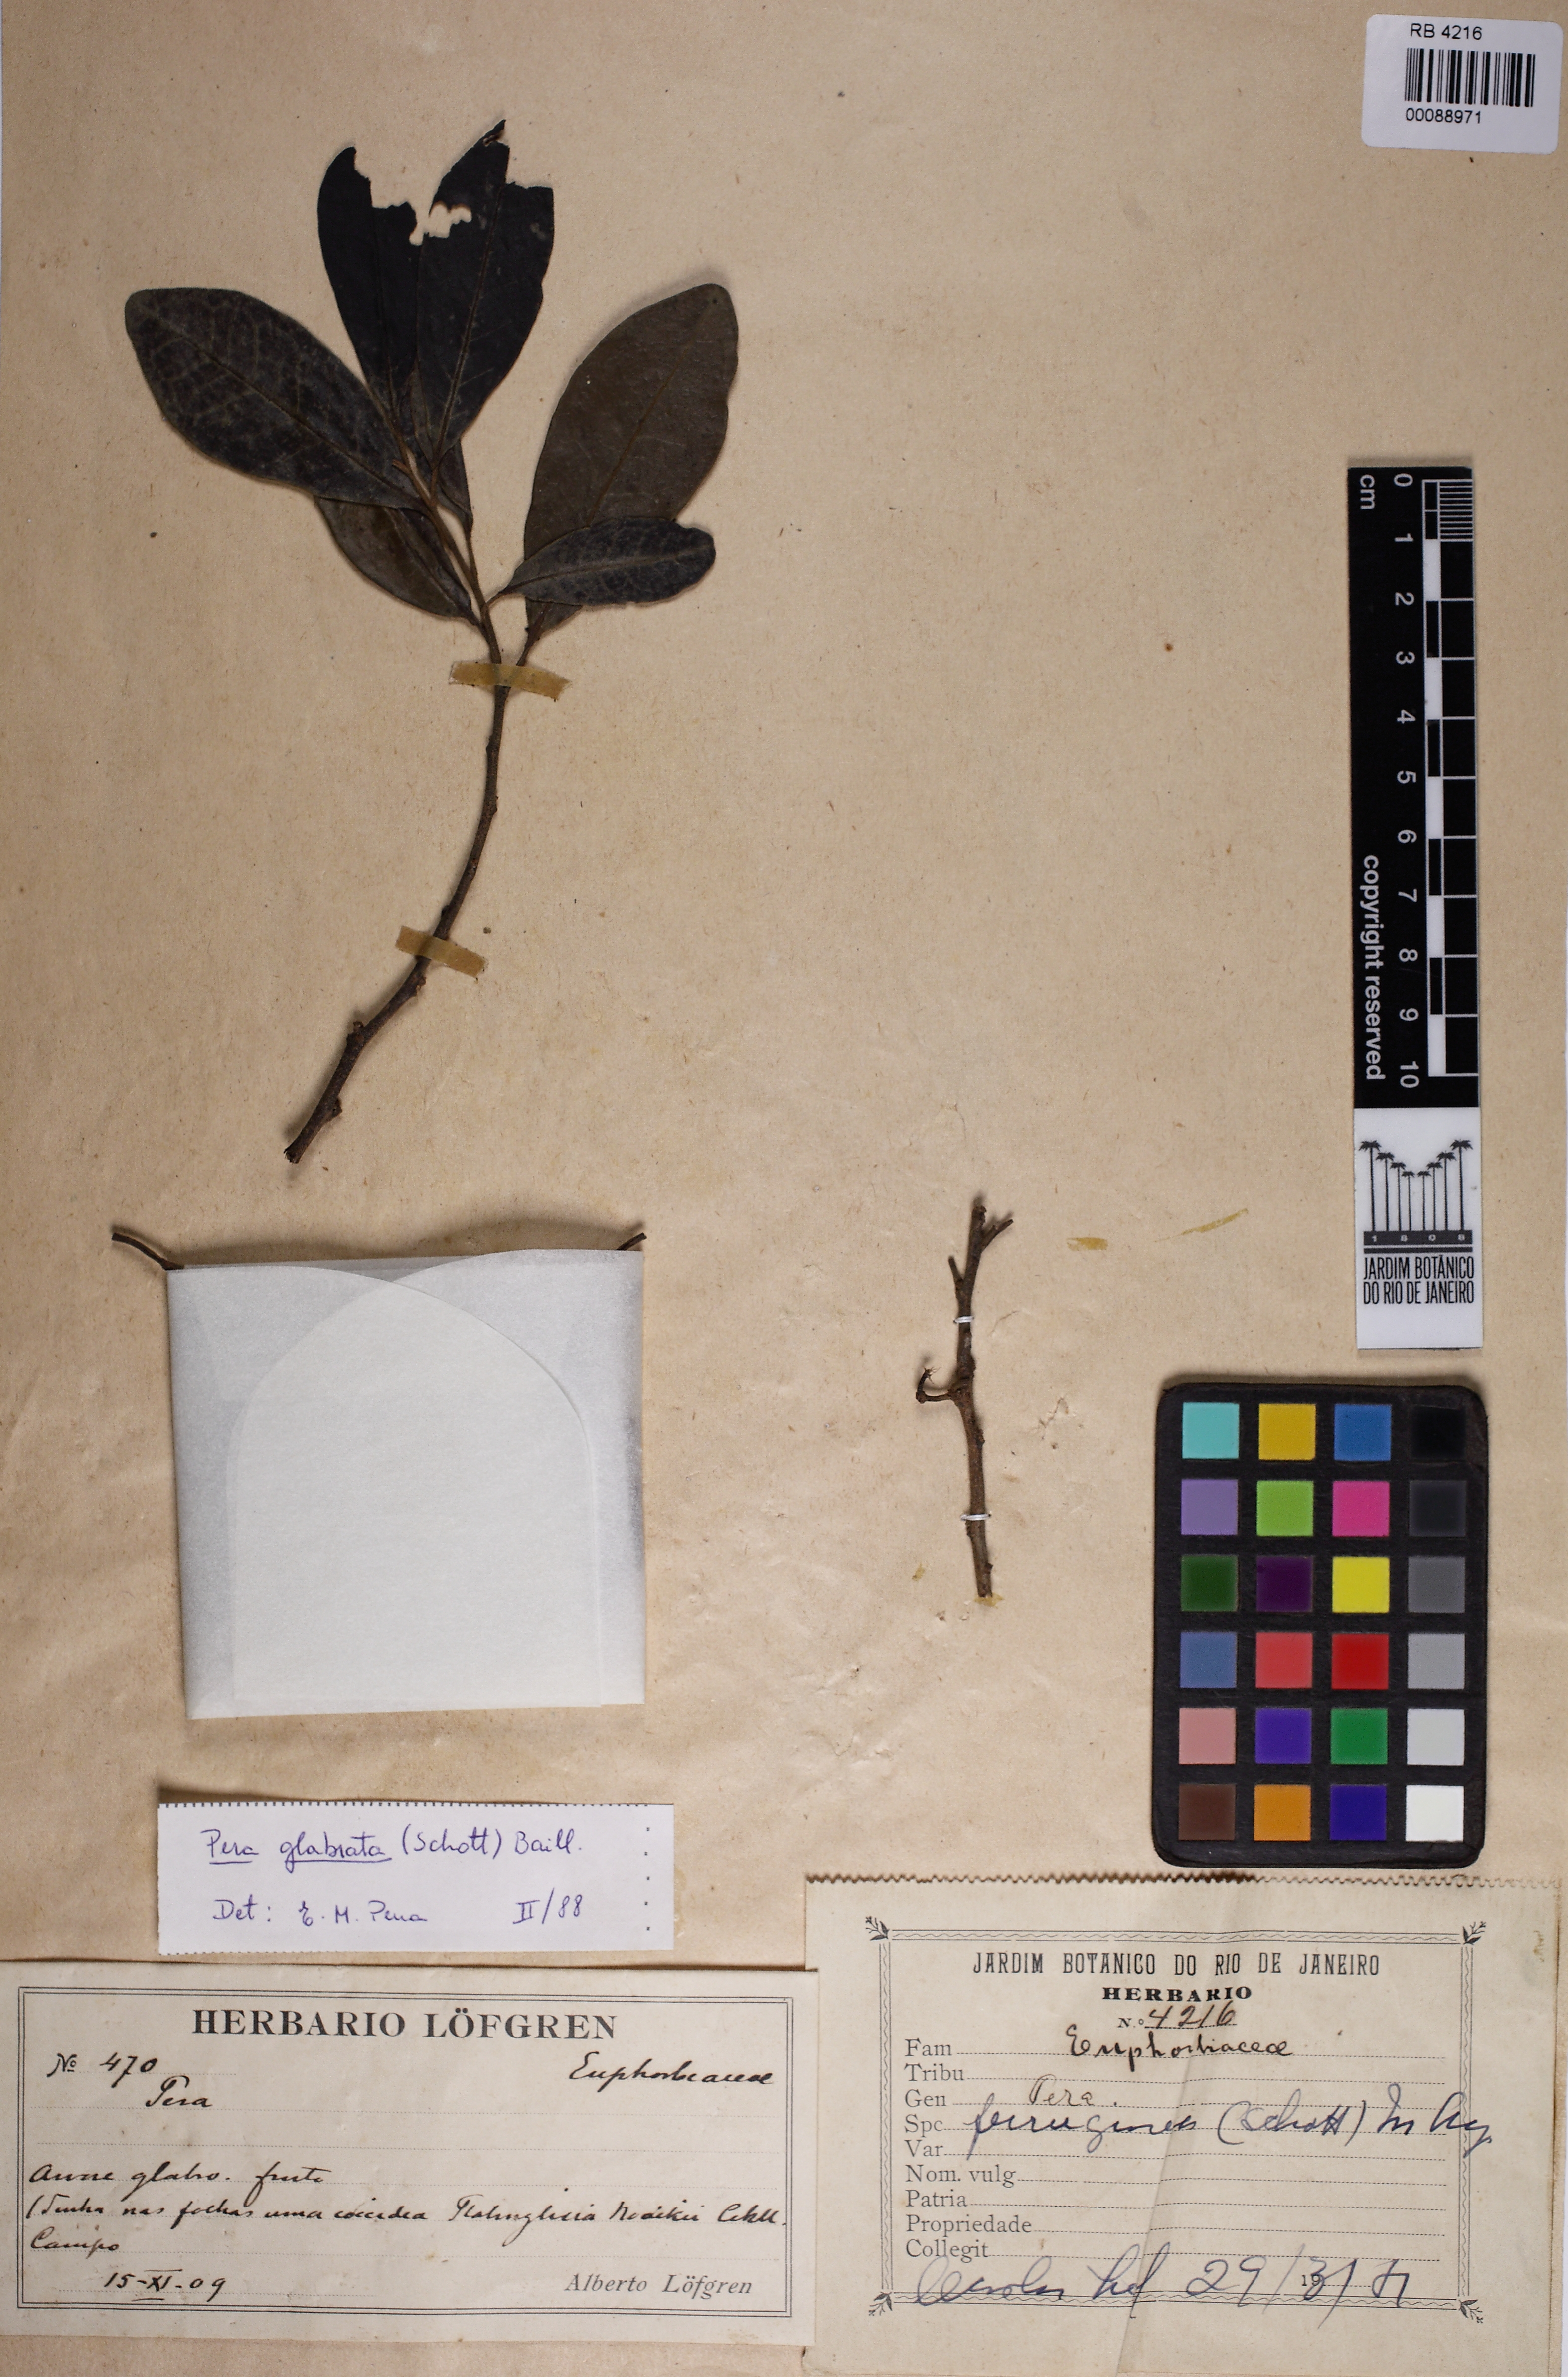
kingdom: Plantae
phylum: Tracheophyta
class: Magnoliopsida
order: Malpighiales
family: Peraceae
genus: Pera
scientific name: Pera glabrata
